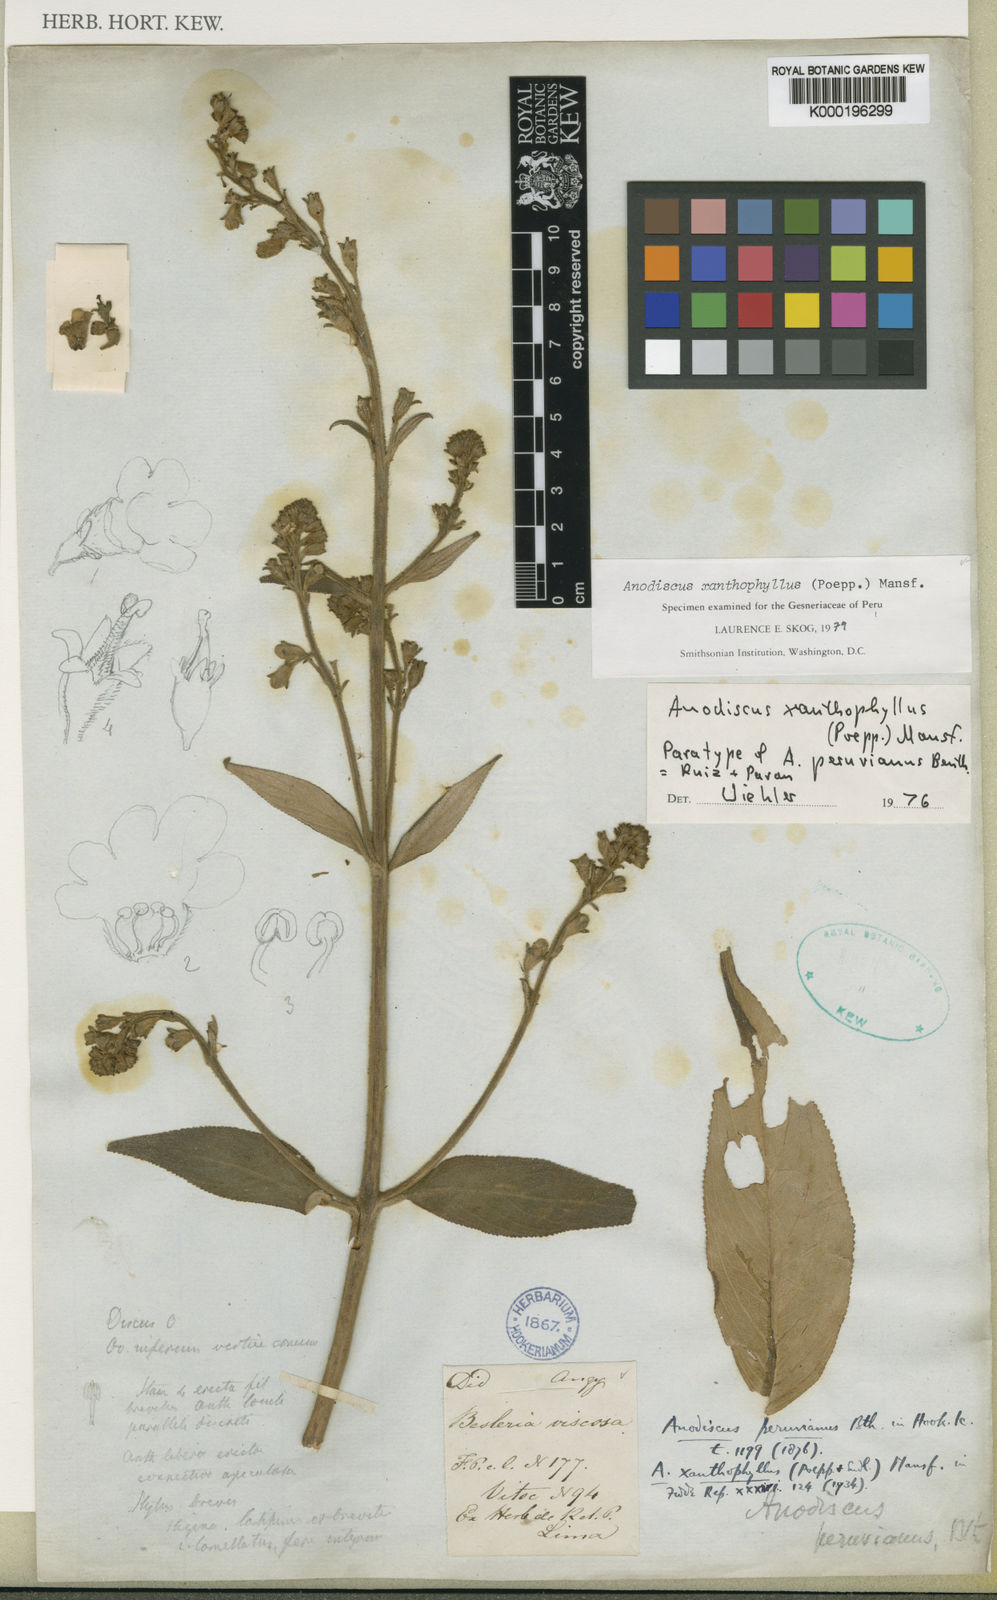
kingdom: Plantae
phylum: Tracheophyta
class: Magnoliopsida
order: Lamiales
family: Gesneriaceae
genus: Gloxinia
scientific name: Gloxinia xanthophylla
